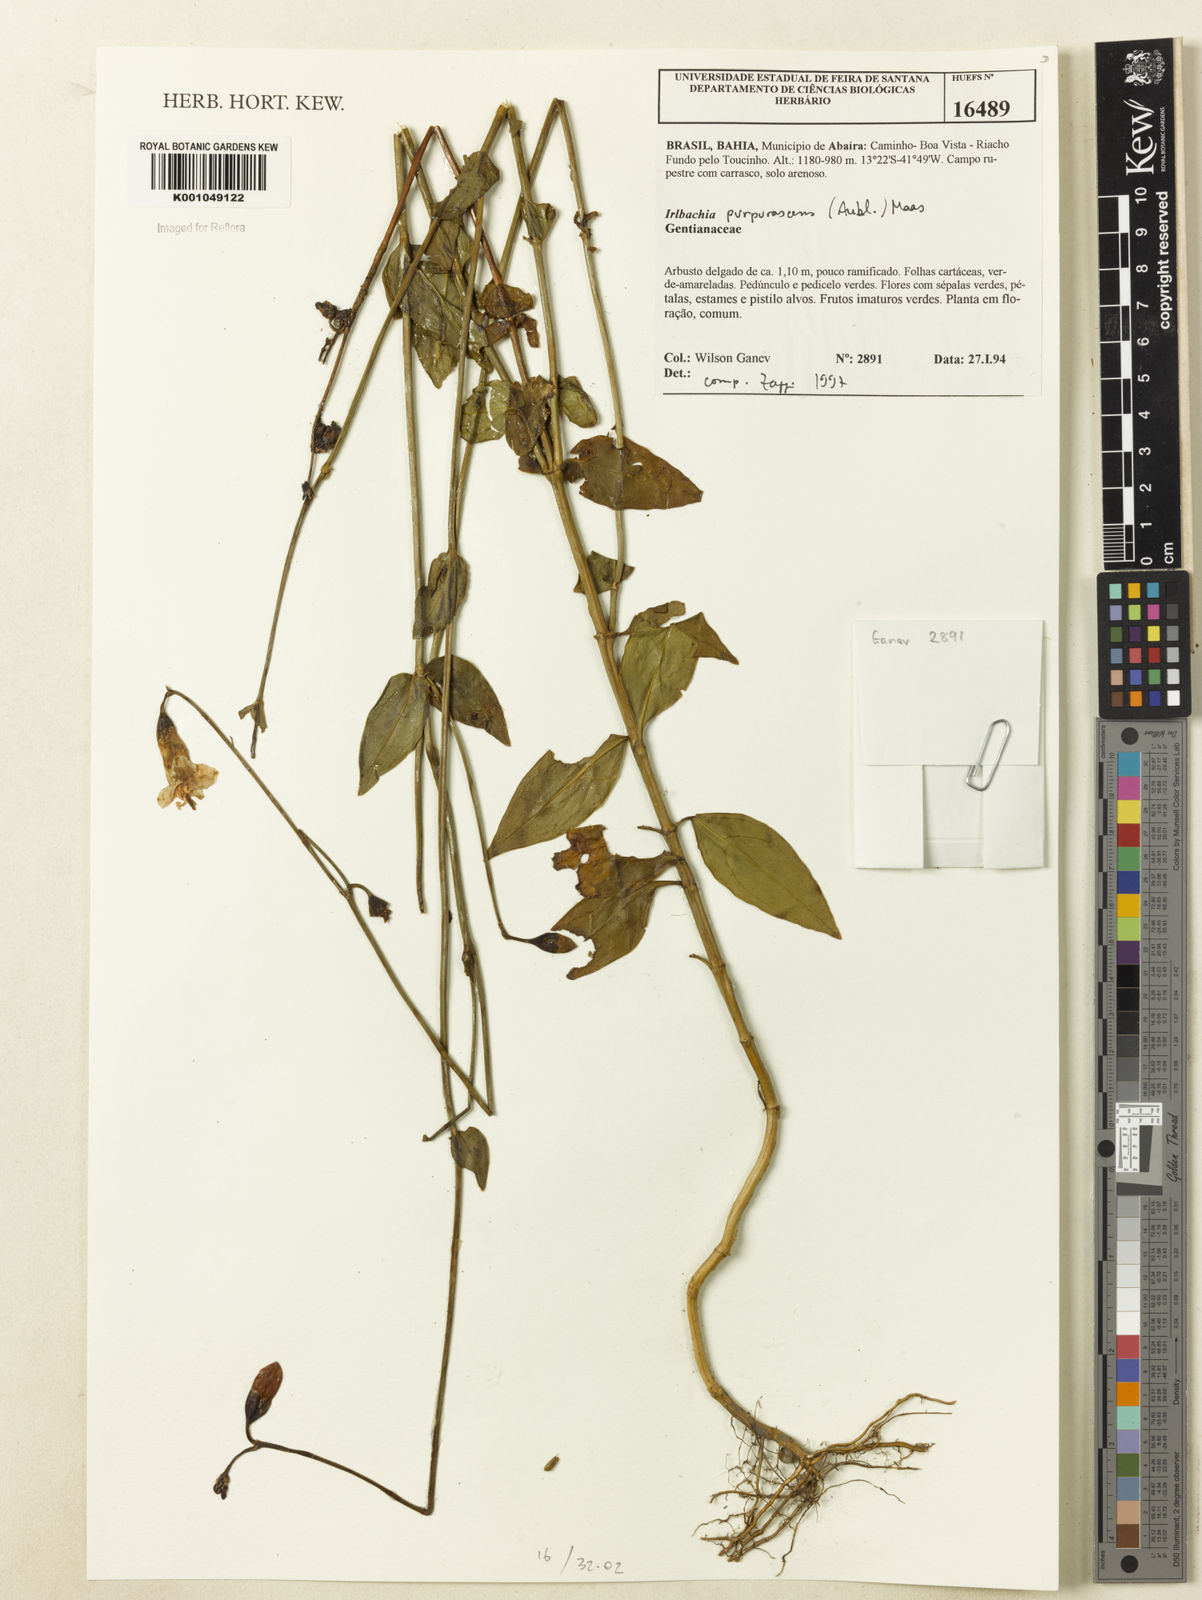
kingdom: Plantae
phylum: Tracheophyta
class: Magnoliopsida
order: Gentianales
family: Gentianaceae
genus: Chelonanthus
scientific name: Chelonanthus purpurascens
